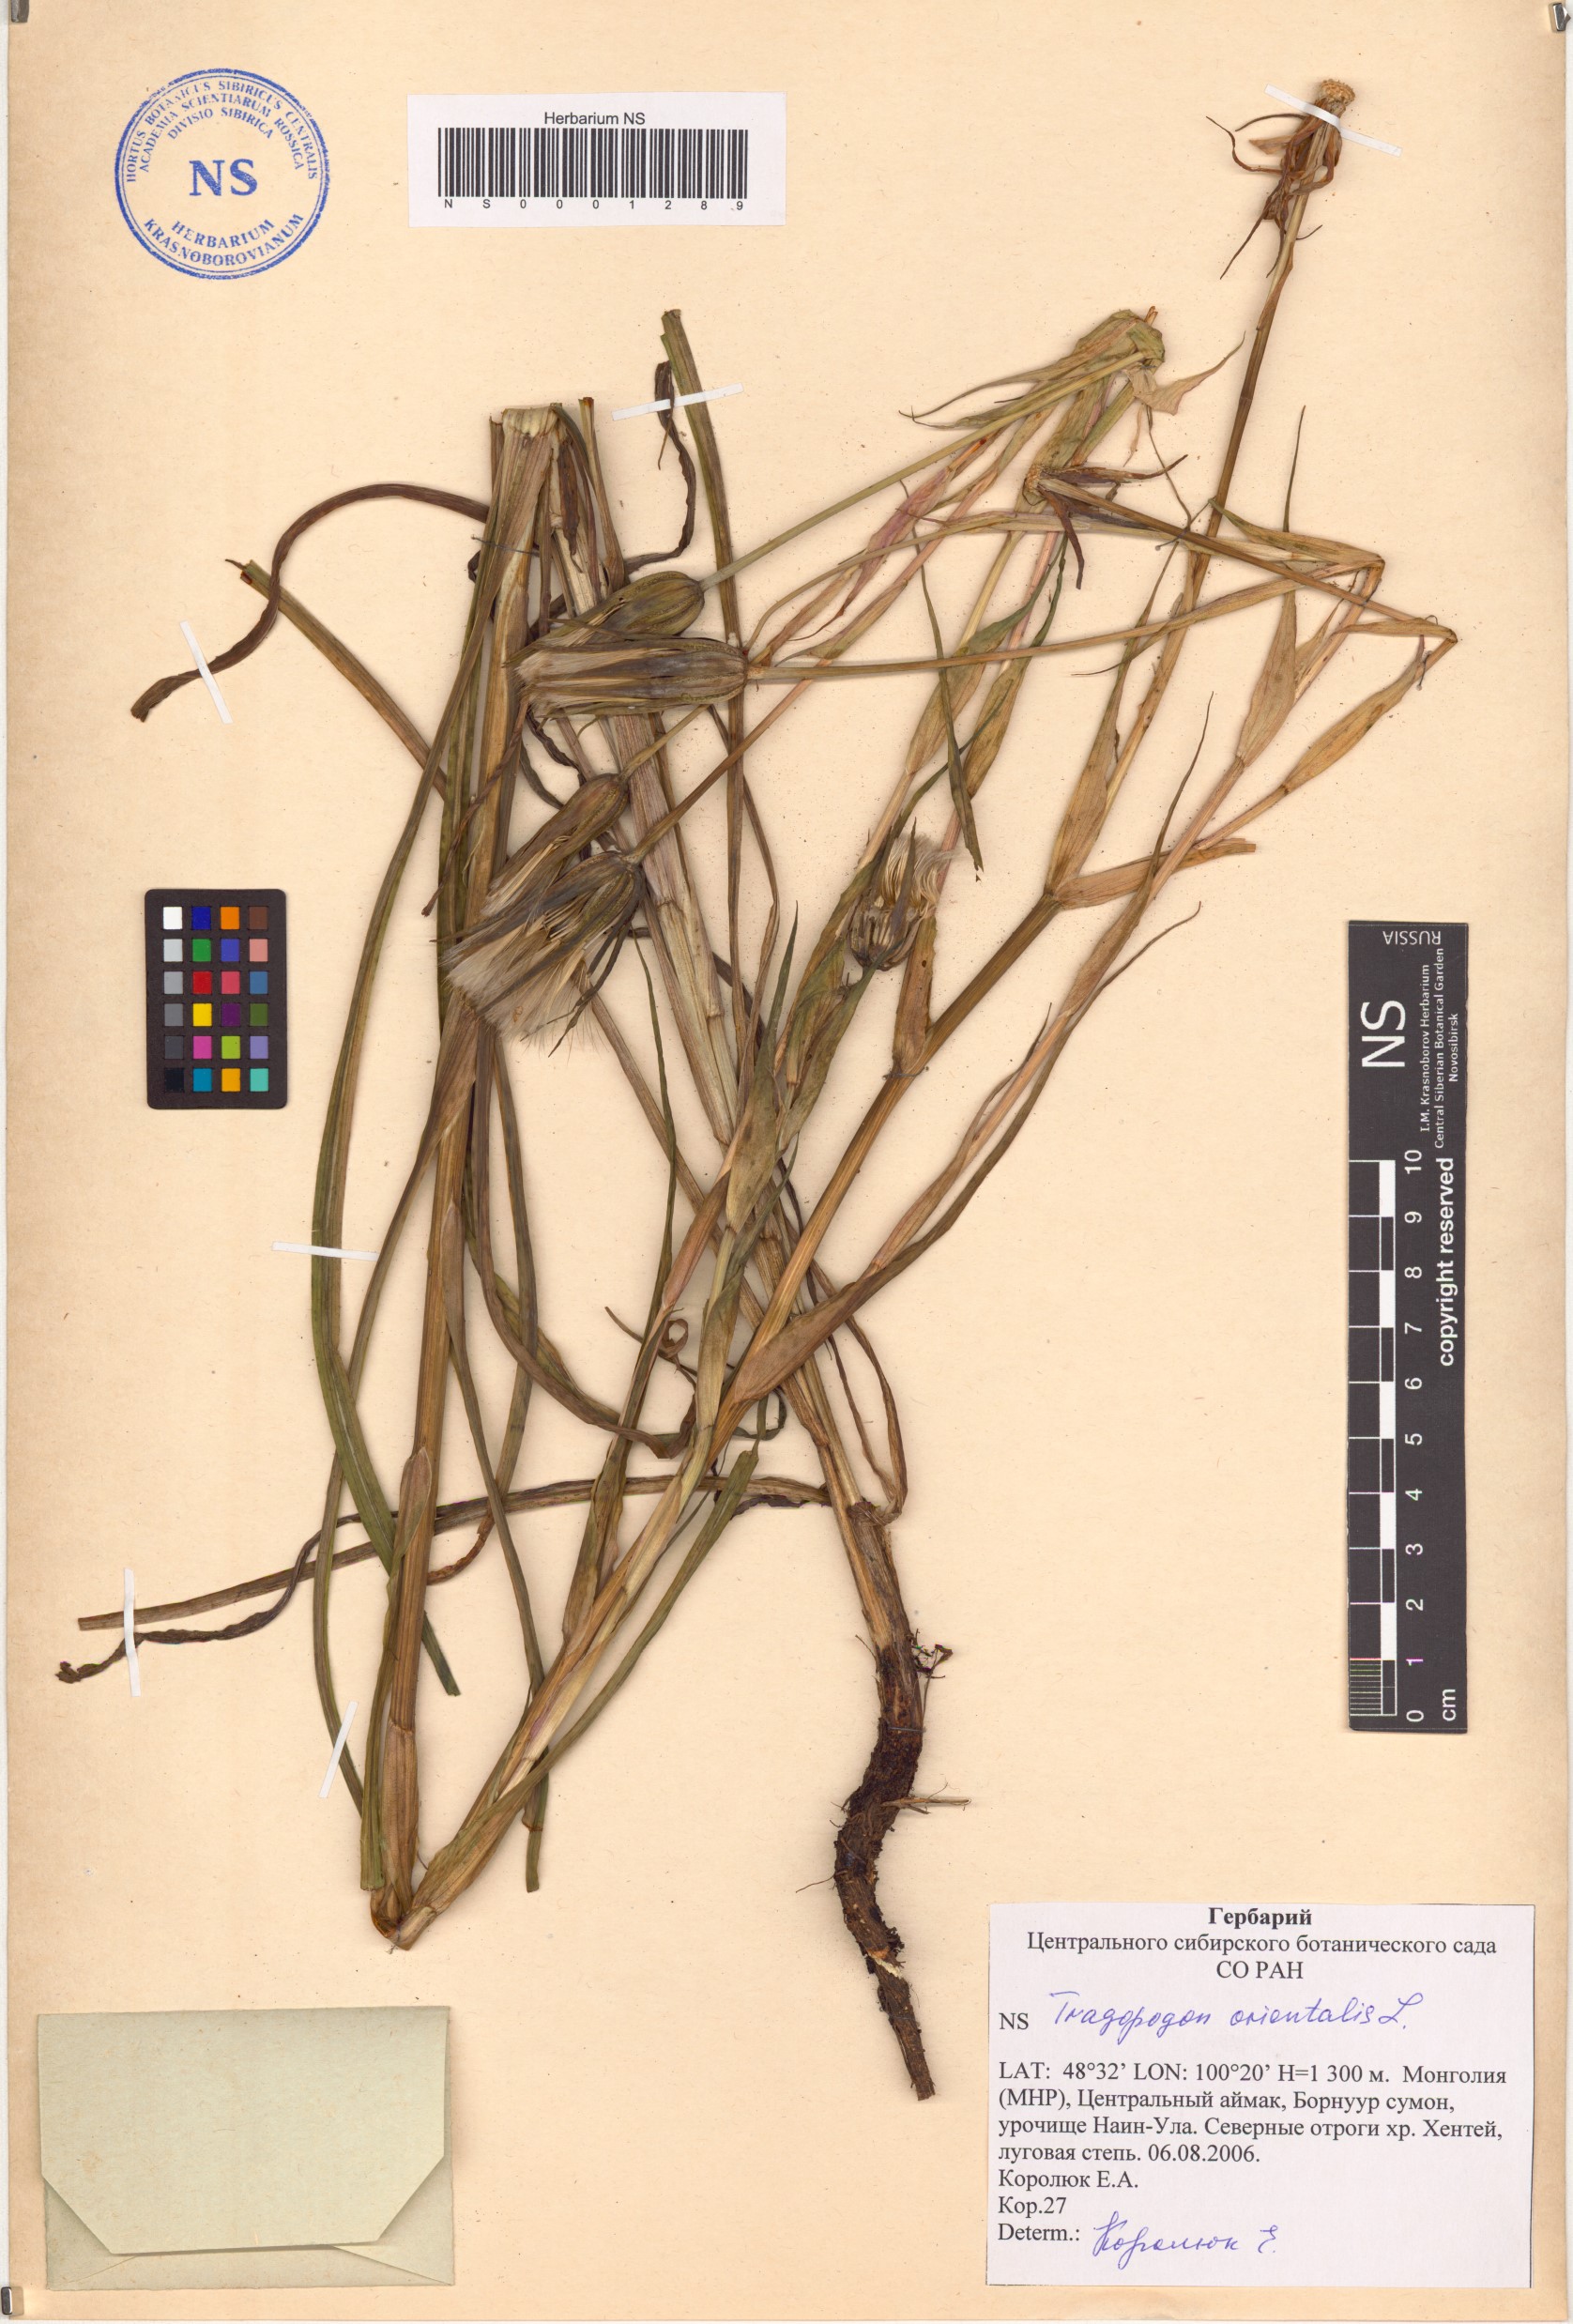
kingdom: Plantae
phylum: Tracheophyta
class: Magnoliopsida
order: Asterales
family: Asteraceae
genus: Tragopogon
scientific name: Tragopogon orientalis
